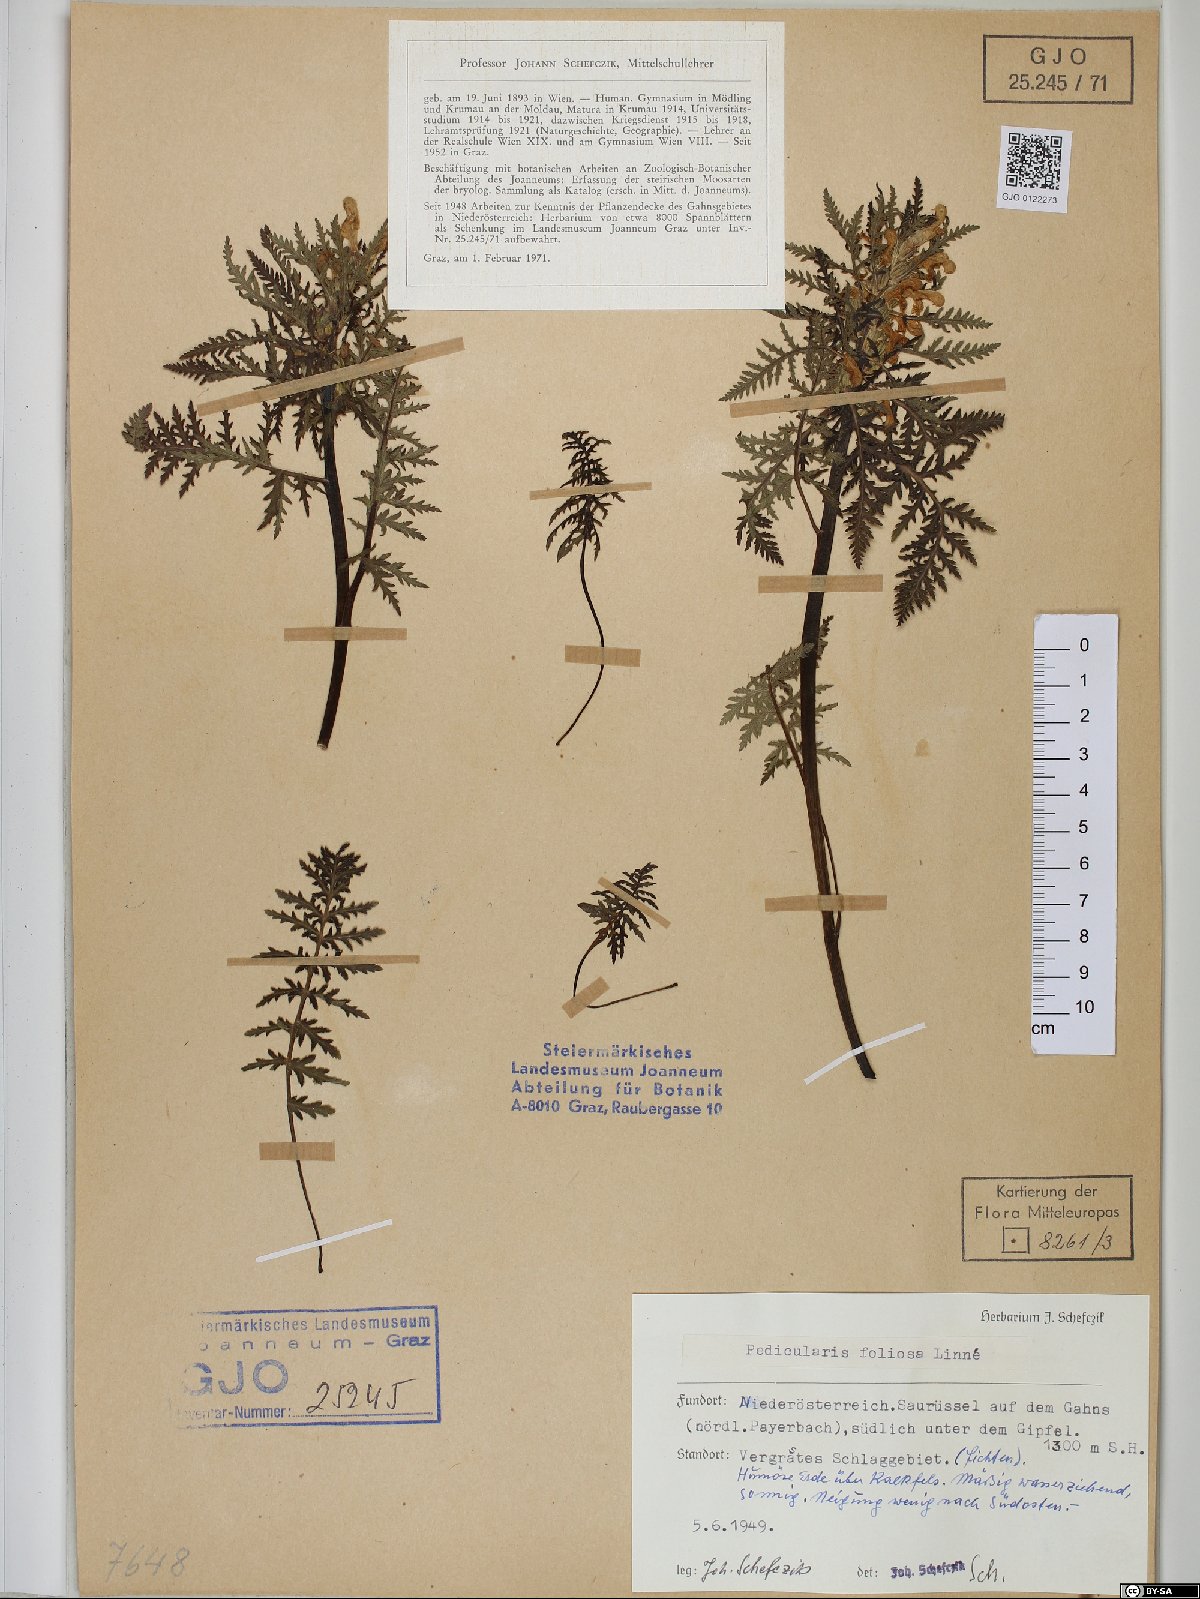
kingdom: Plantae
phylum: Tracheophyta
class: Magnoliopsida
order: Lamiales
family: Orobanchaceae
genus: Pedicularis
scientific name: Pedicularis foliosa
